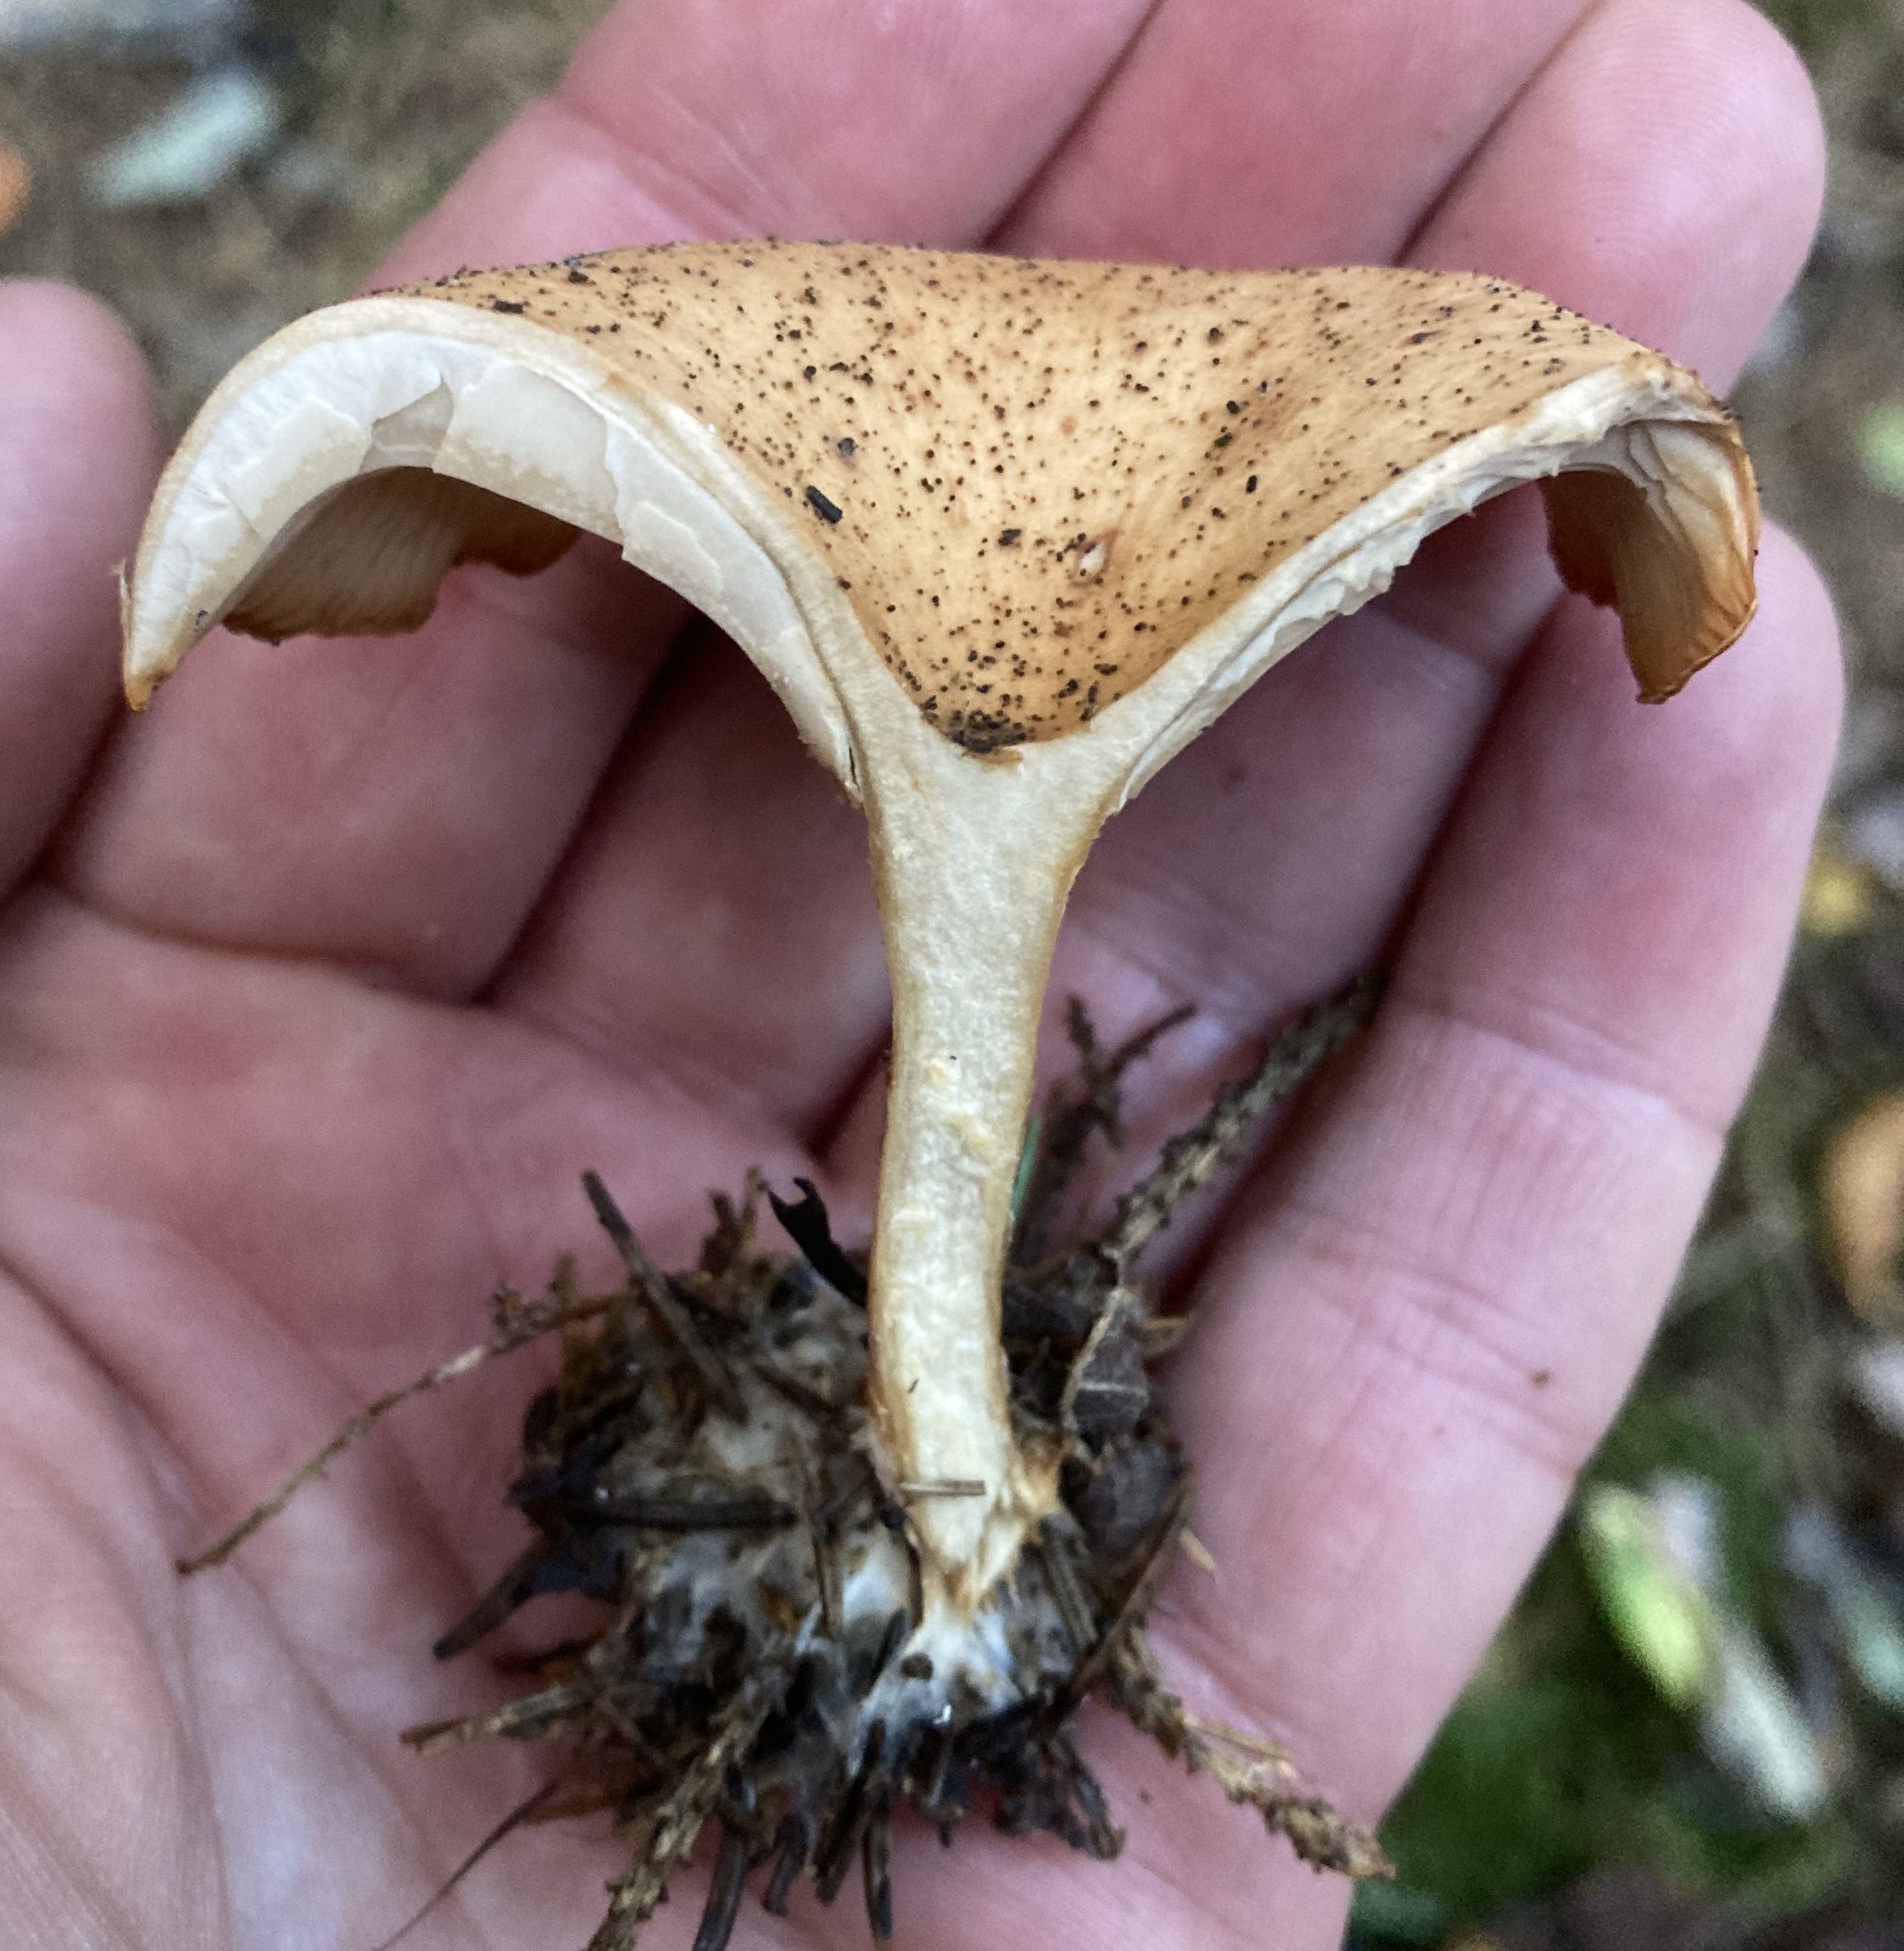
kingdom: Fungi
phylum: Basidiomycota
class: Agaricomycetes
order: Agaricales
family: Tricholomataceae
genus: Paralepista
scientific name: Paralepista flaccida
